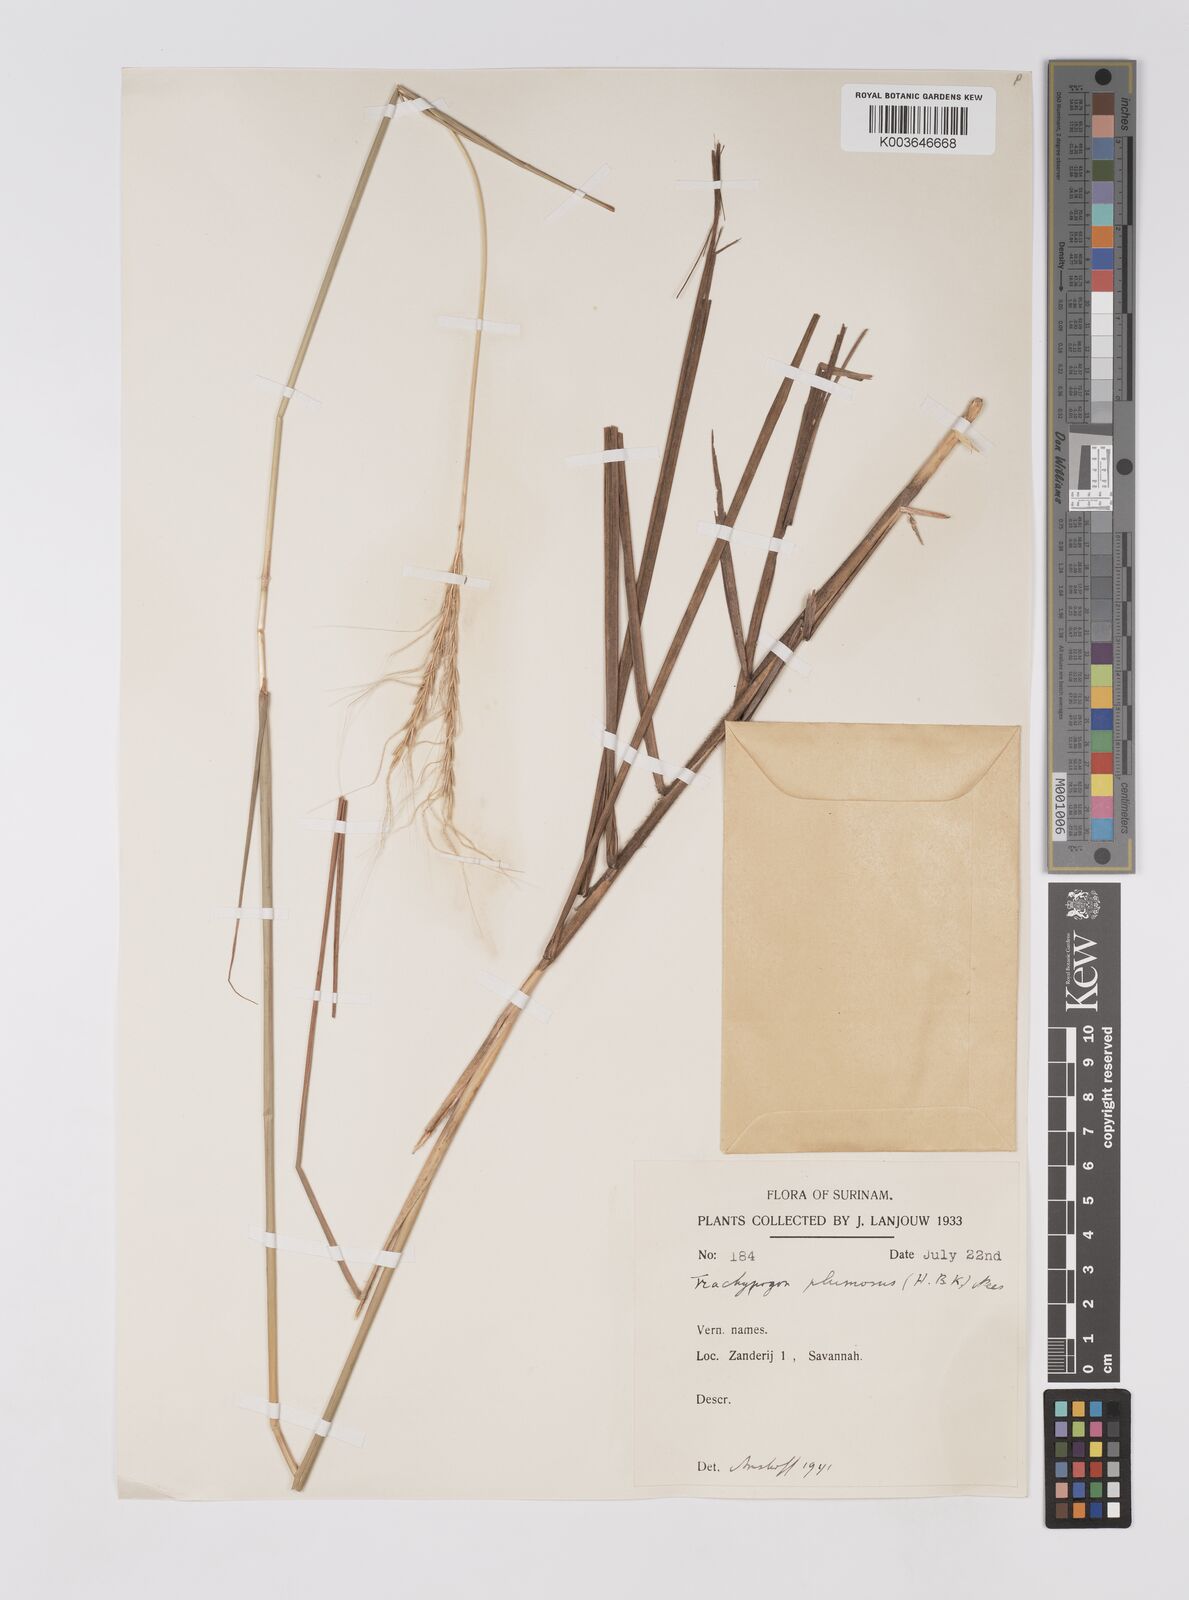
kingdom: Plantae
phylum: Tracheophyta
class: Liliopsida
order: Poales
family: Poaceae
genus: Trachypogon
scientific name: Trachypogon spicatus
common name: Crinkle-awn
